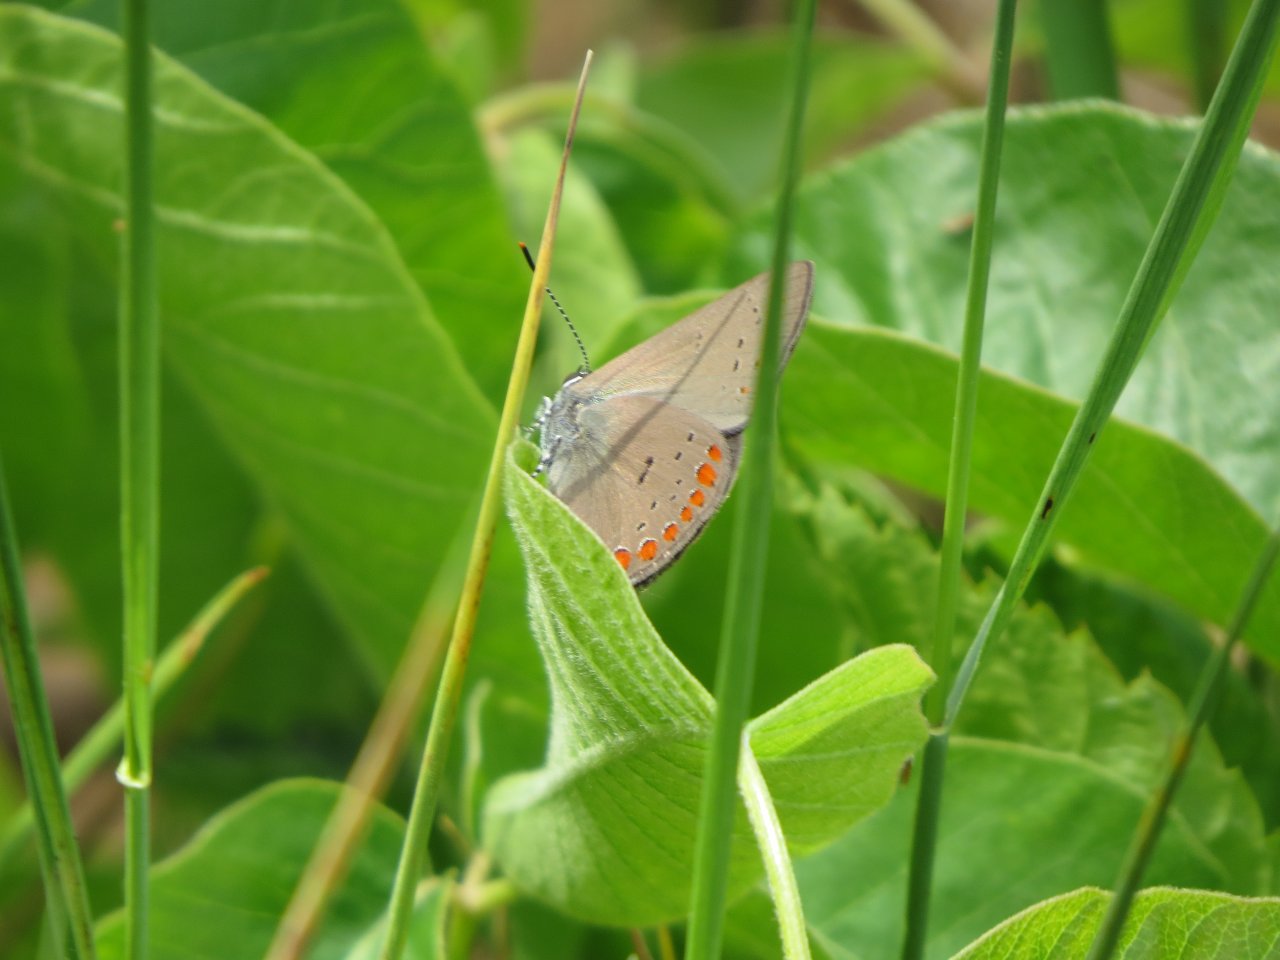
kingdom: Animalia
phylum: Arthropoda
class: Insecta
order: Lepidoptera
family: Lycaenidae
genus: Harkenclenus
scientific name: Harkenclenus titus
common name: Coral Hairstreak
